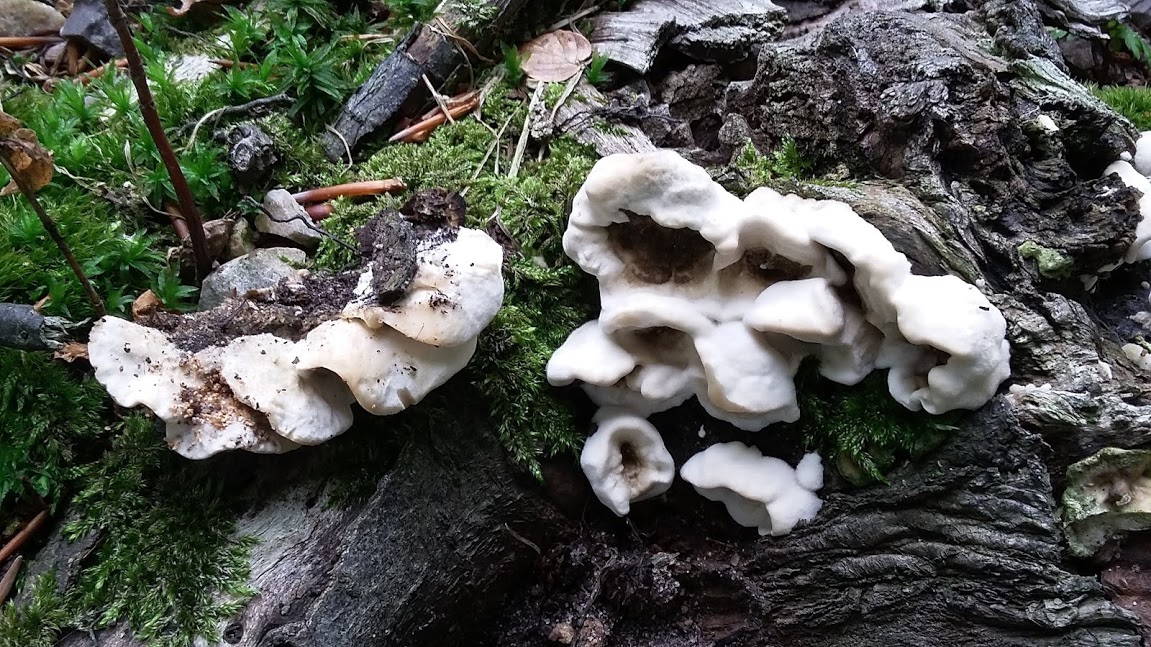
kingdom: Fungi
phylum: Basidiomycota
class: Agaricomycetes
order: Polyporales
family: Phanerochaetaceae
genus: Bjerkandera
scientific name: Bjerkandera adusta
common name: sveden sodporesvamp
